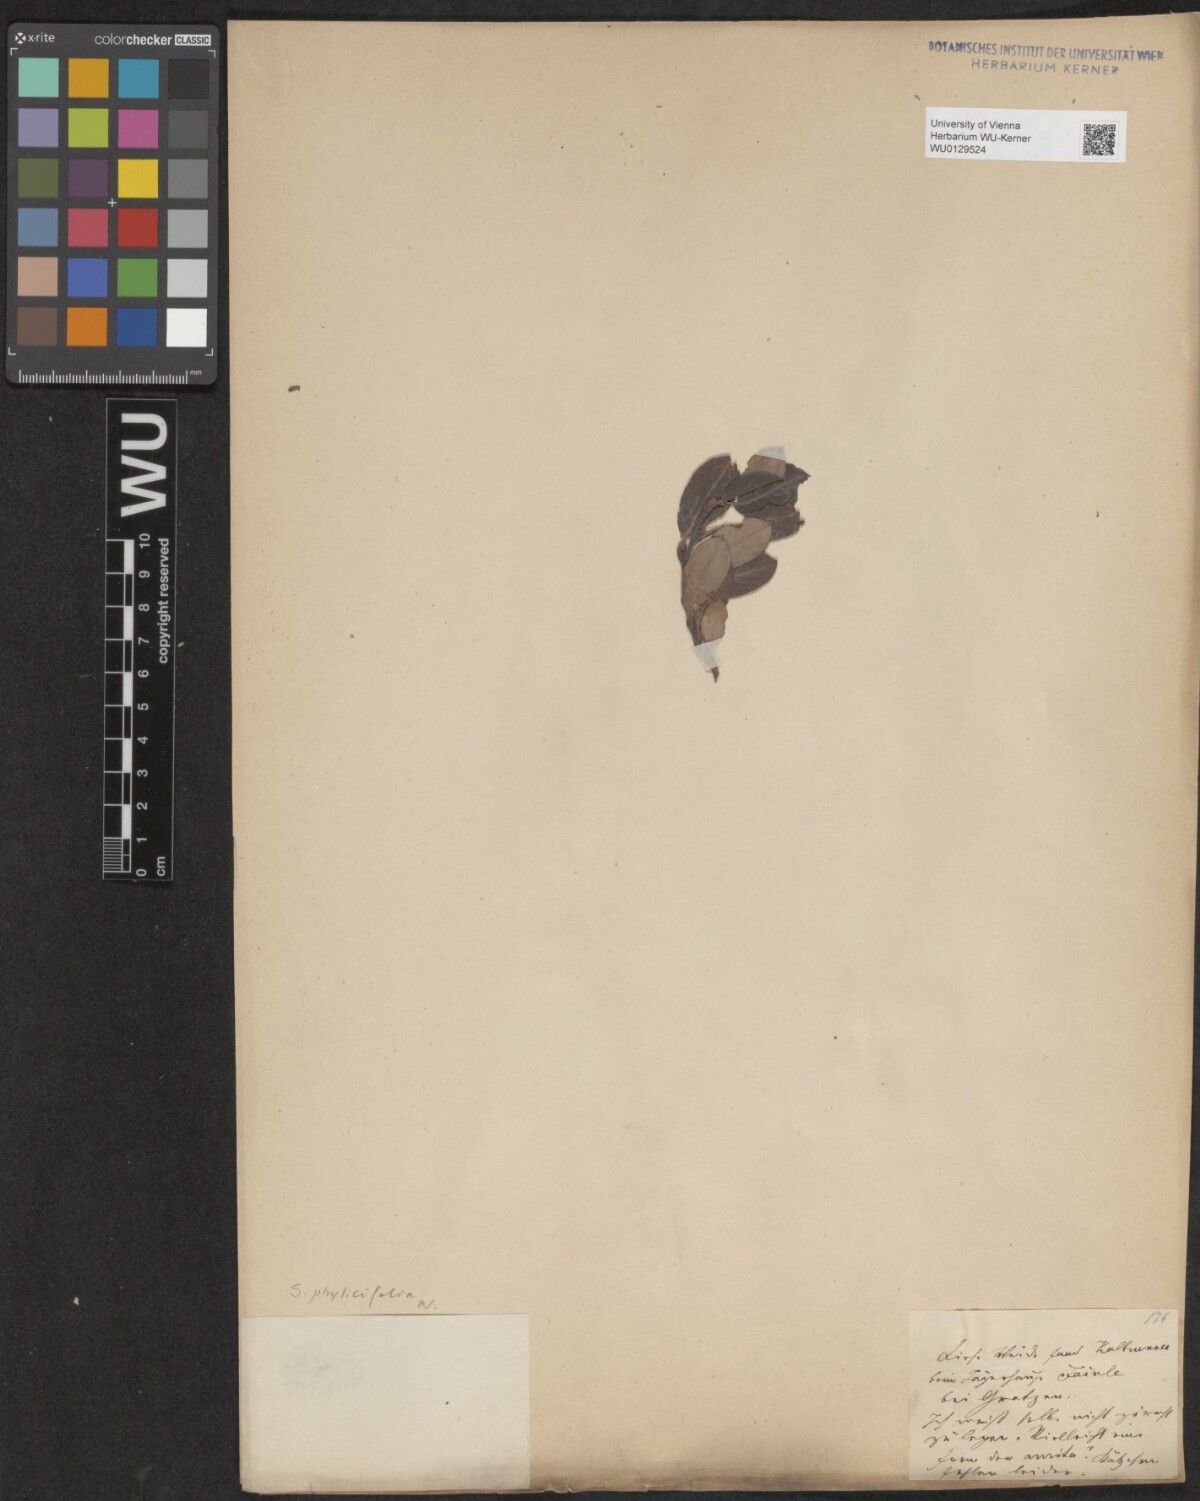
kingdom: Plantae
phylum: Tracheophyta
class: Magnoliopsida
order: Malpighiales
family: Salicaceae
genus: Salix
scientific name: Salix bicolor
